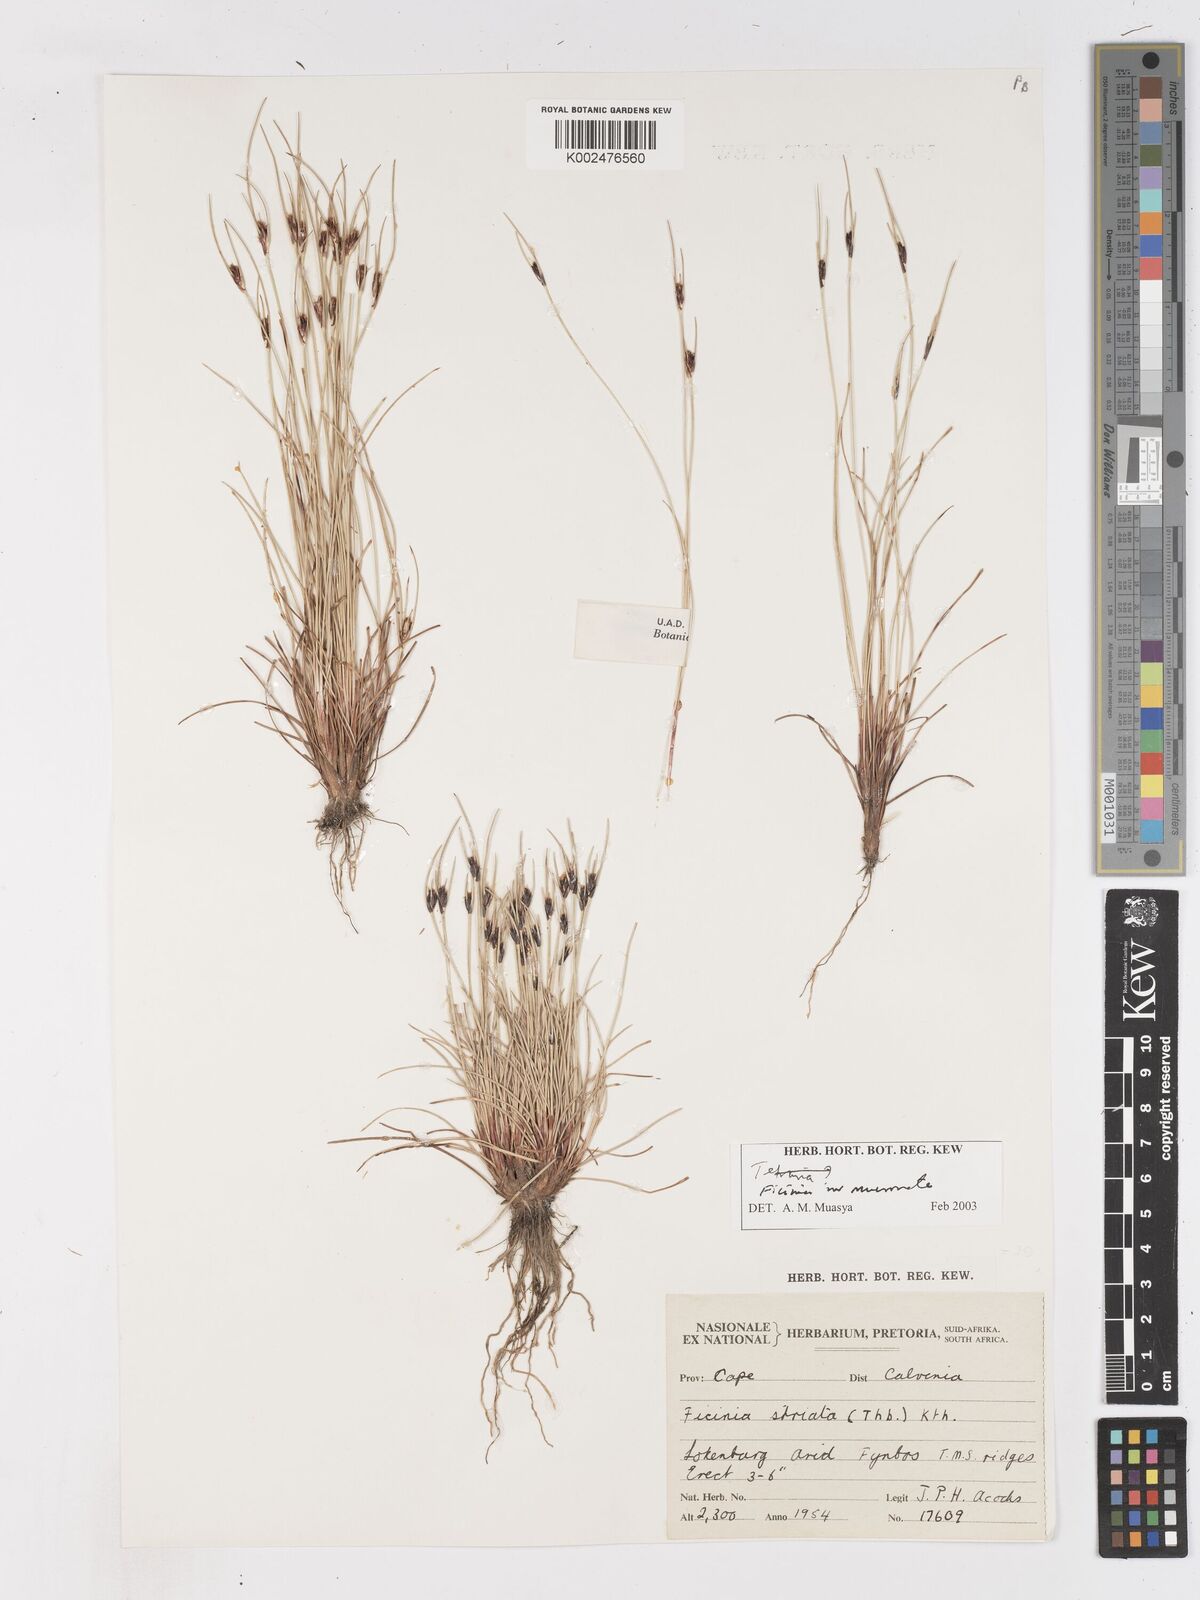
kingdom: Plantae
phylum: Tracheophyta
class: Liliopsida
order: Poales
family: Cyperaceae
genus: Ficinia
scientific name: Ficinia
